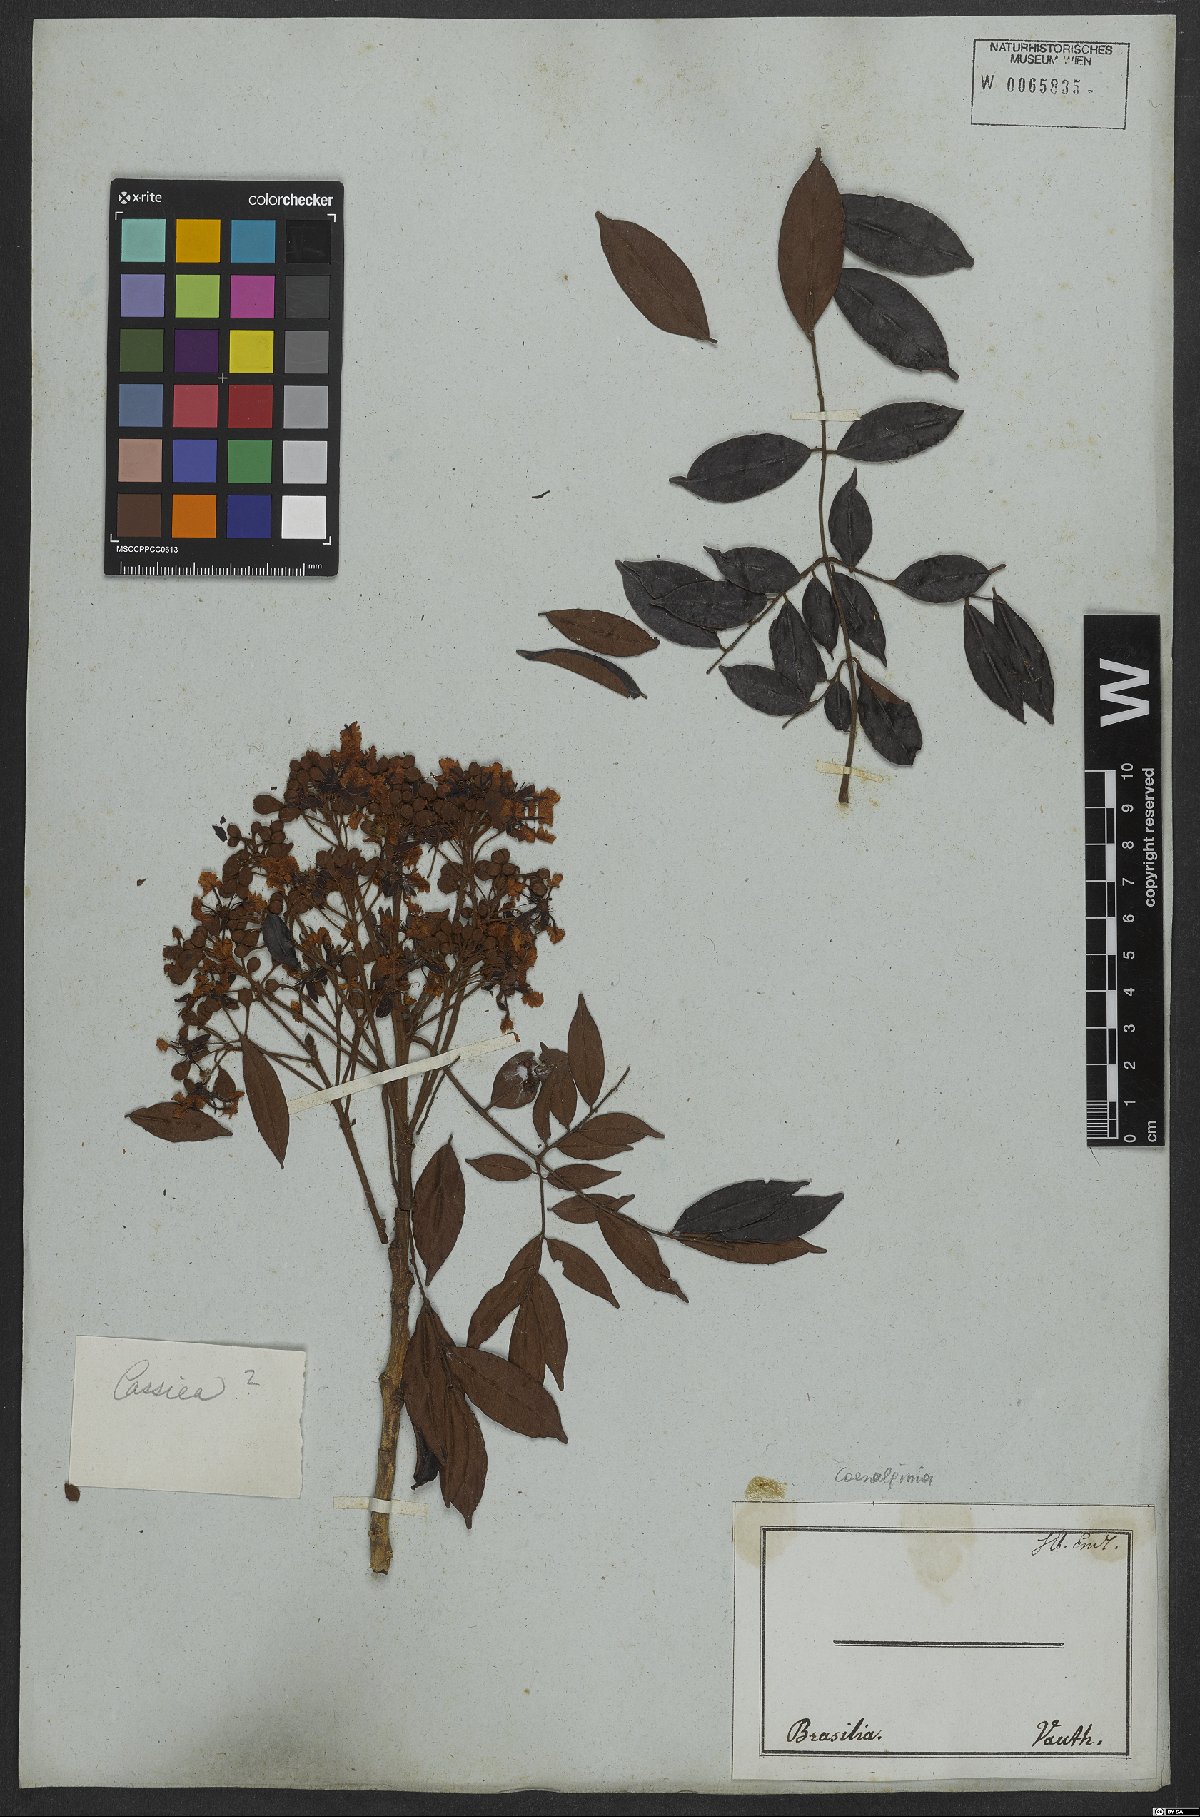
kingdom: Plantae
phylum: Tracheophyta
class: Magnoliopsida
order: Fabales
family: Fabaceae
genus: Caesalpinia
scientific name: Caesalpinia
